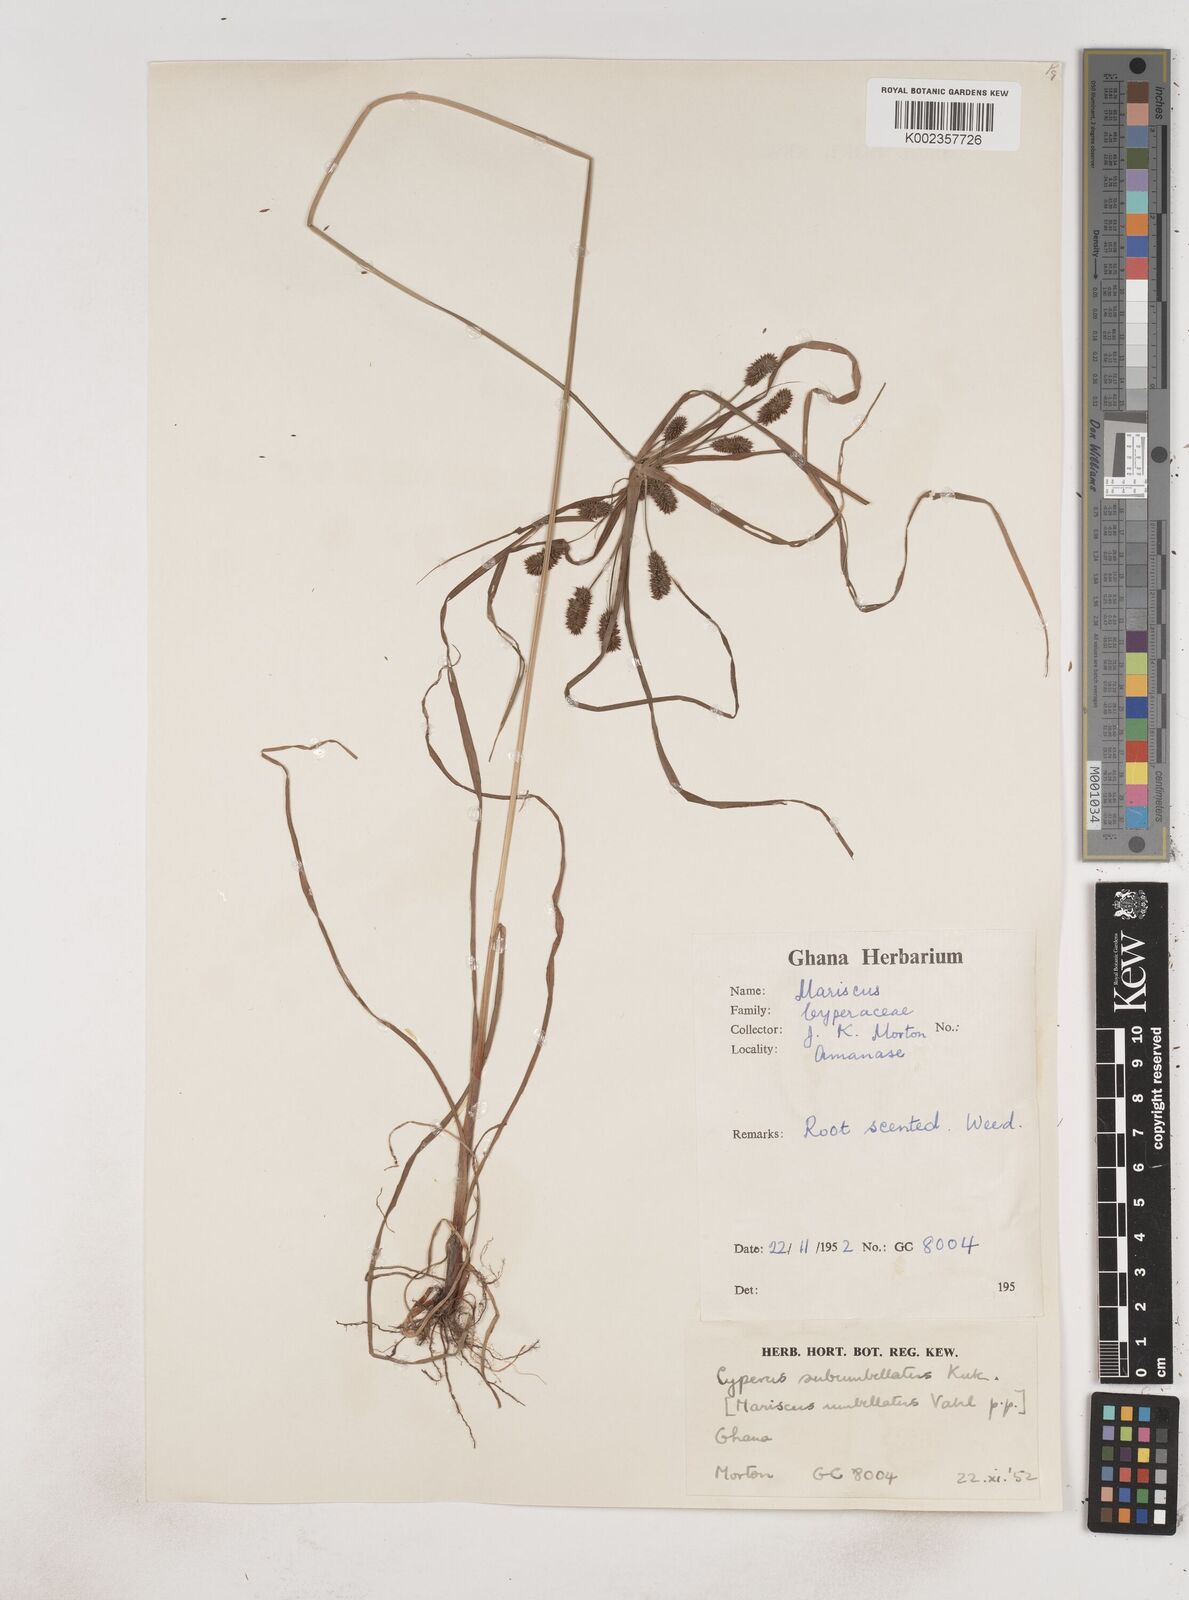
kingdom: Plantae
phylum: Tracheophyta
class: Liliopsida
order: Poales
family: Cyperaceae
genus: Cyperus
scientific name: Cyperus cyperoides
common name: Pacific island flat sedge
